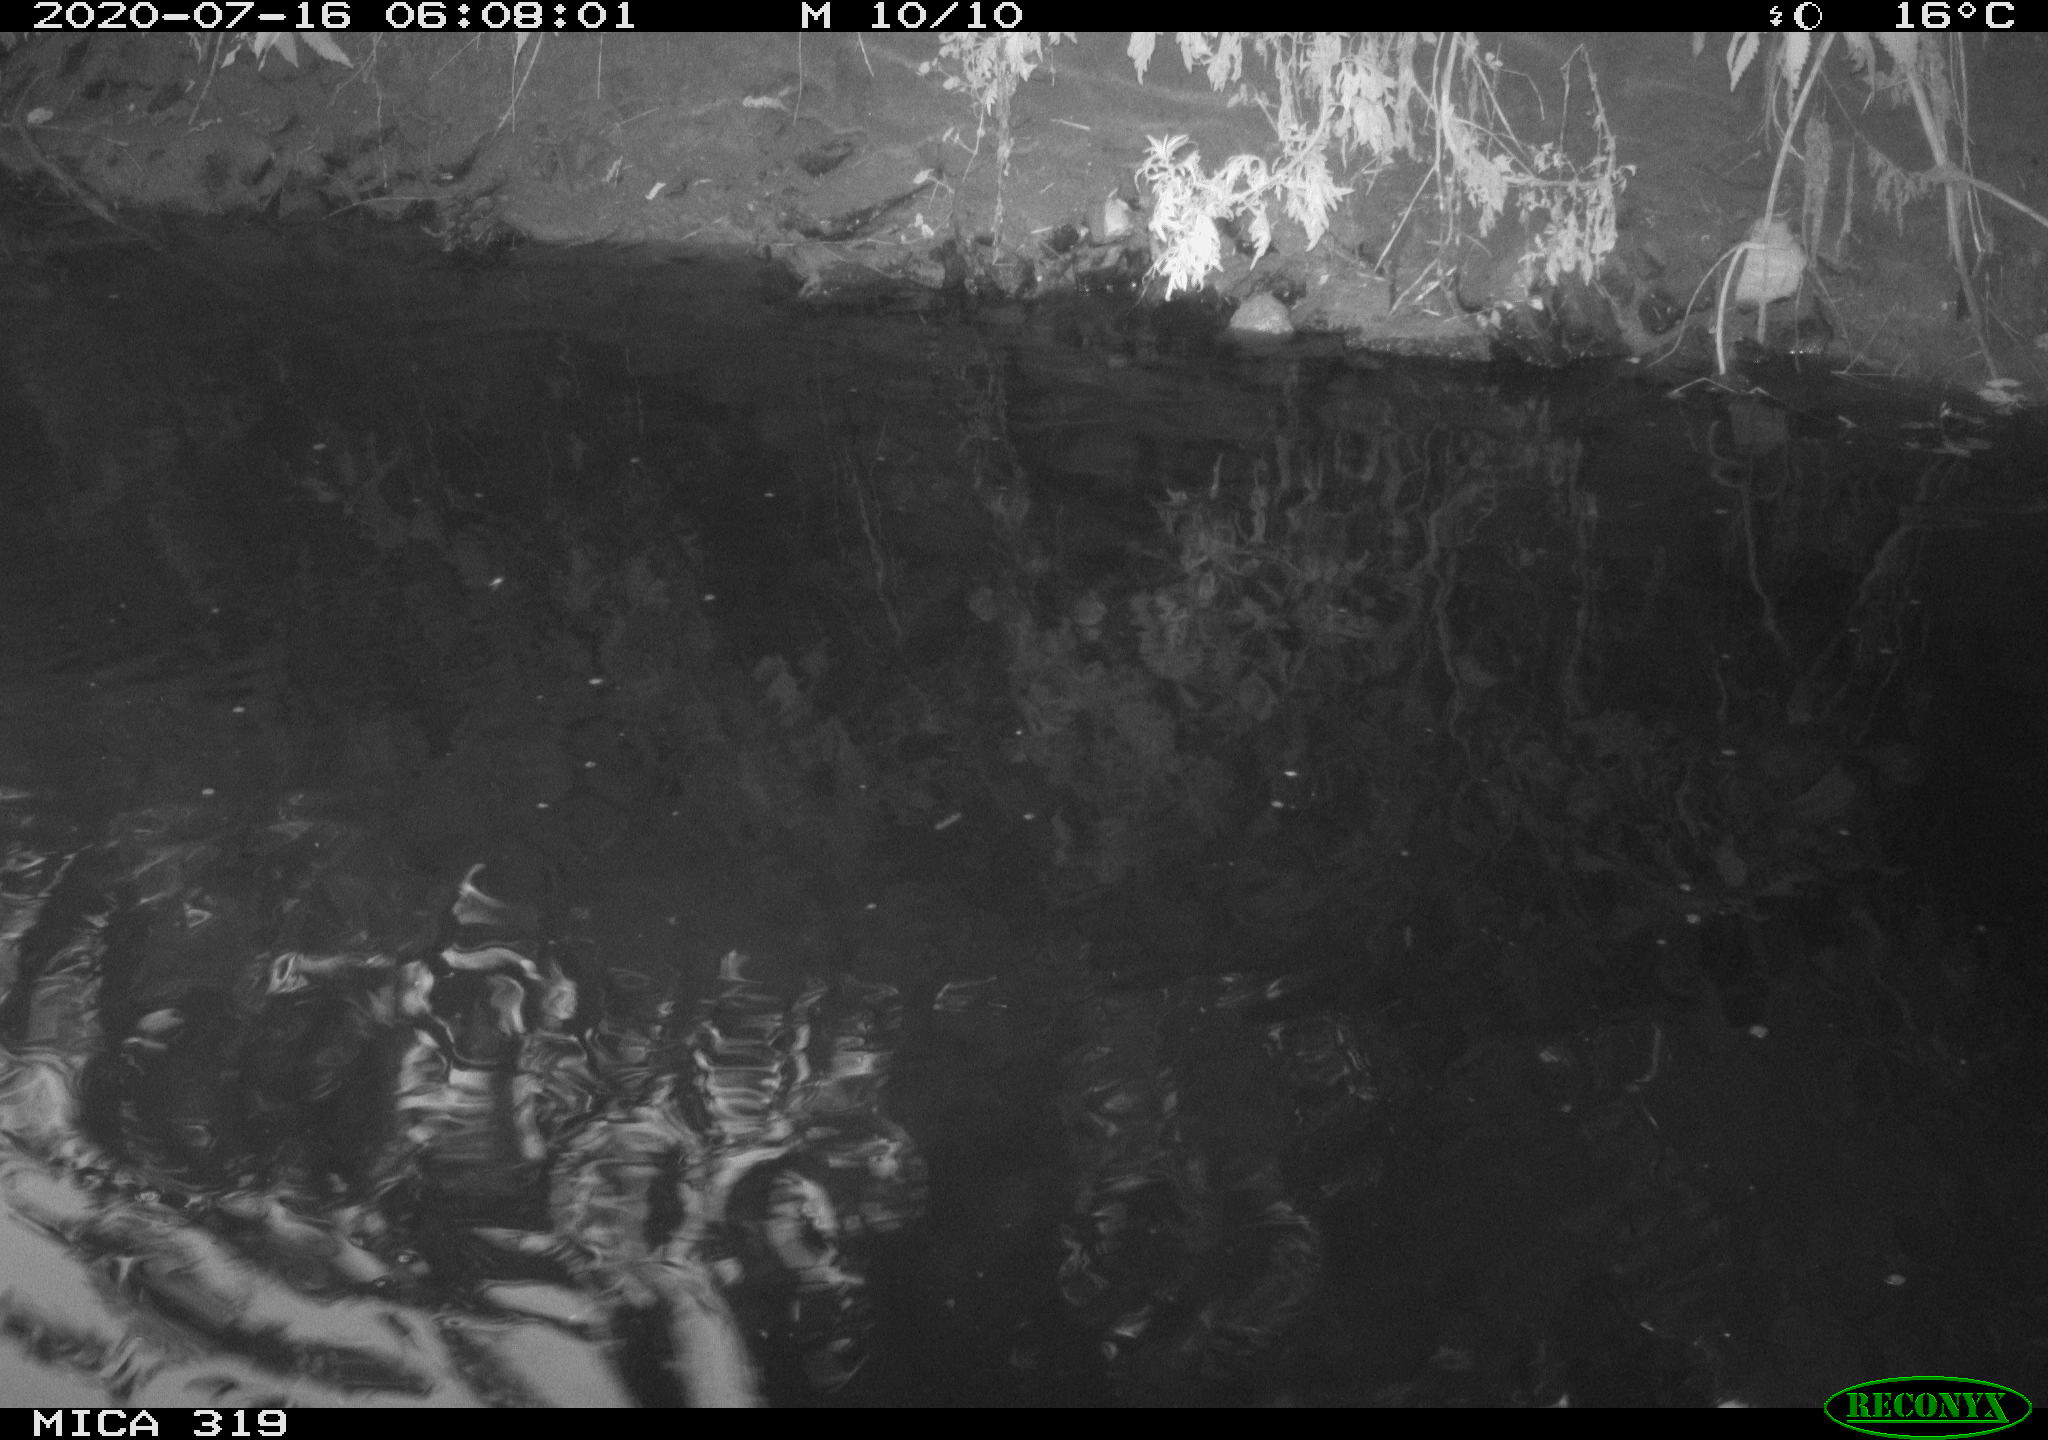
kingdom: Animalia
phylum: Chordata
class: Aves
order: Anseriformes
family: Anatidae
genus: Anas
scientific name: Anas platyrhynchos
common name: Mallard
